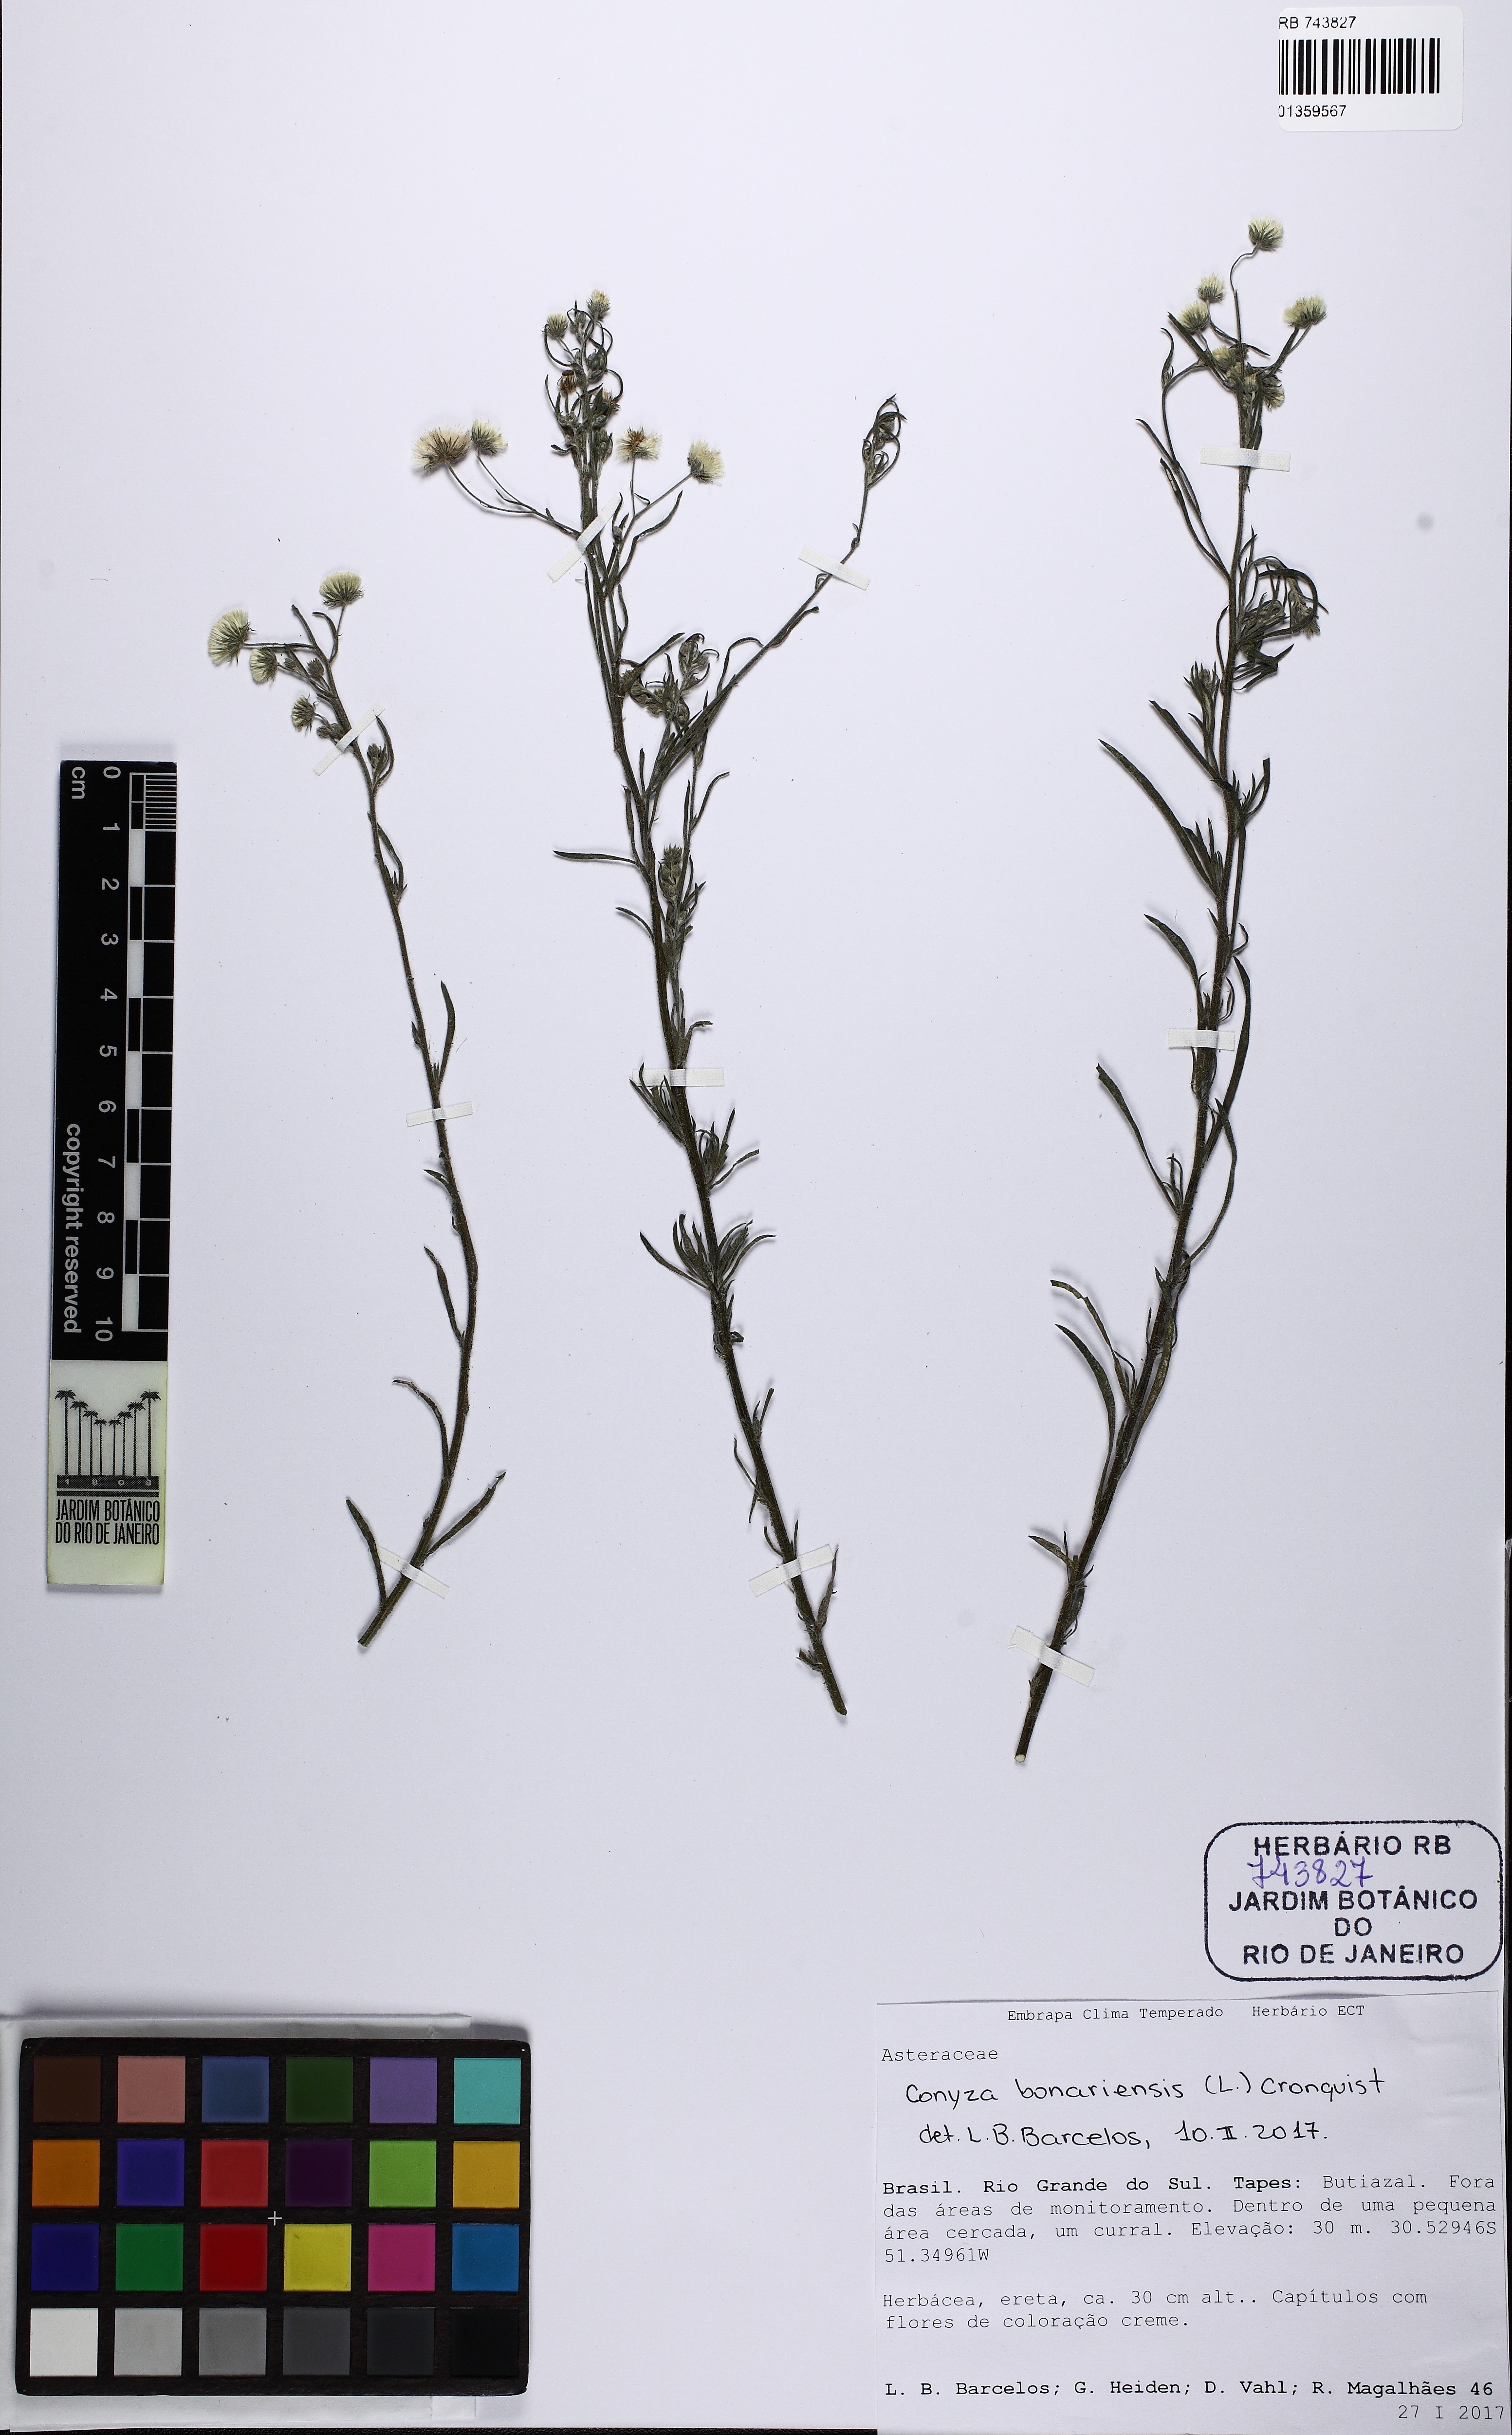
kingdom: Plantae
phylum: Tracheophyta
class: Magnoliopsida
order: Asterales
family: Asteraceae
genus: Erigeron
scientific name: Erigeron bonariensis
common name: Argentine fleabane
